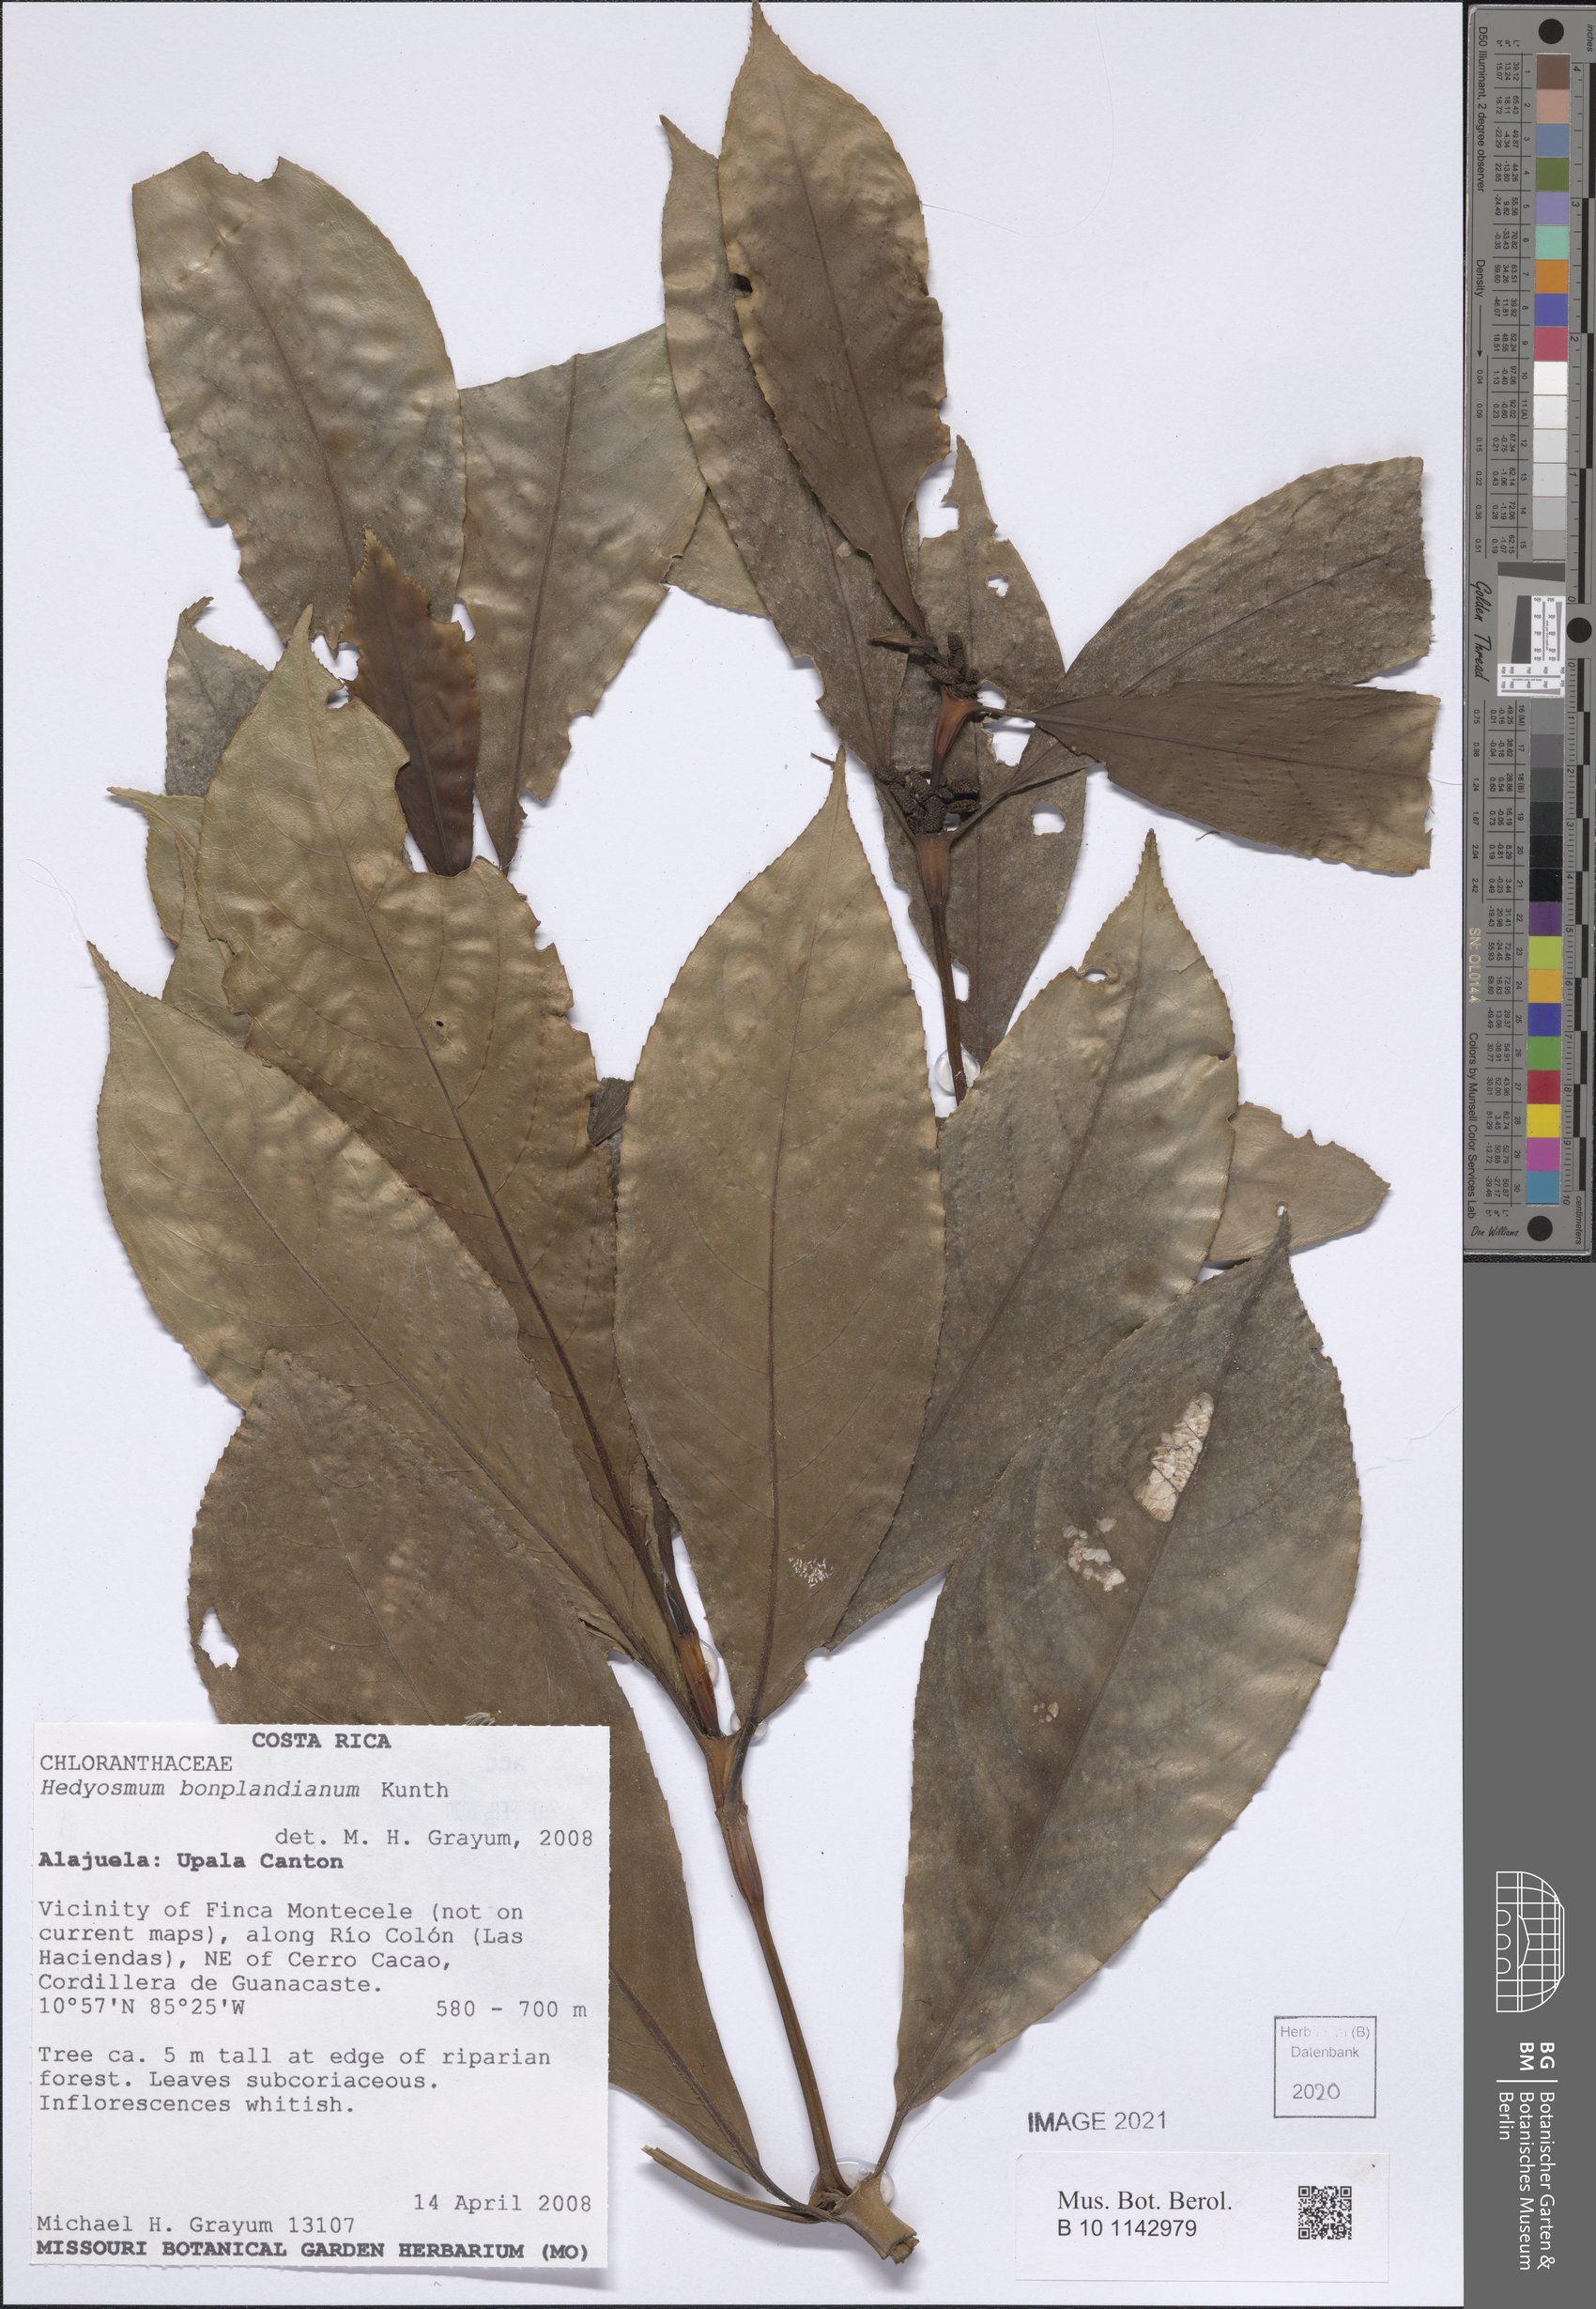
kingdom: Plantae
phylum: Tracheophyta
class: Magnoliopsida
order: Chloranthales
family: Chloranthaceae
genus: Hedyosmum
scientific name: Hedyosmum bonplandianum
